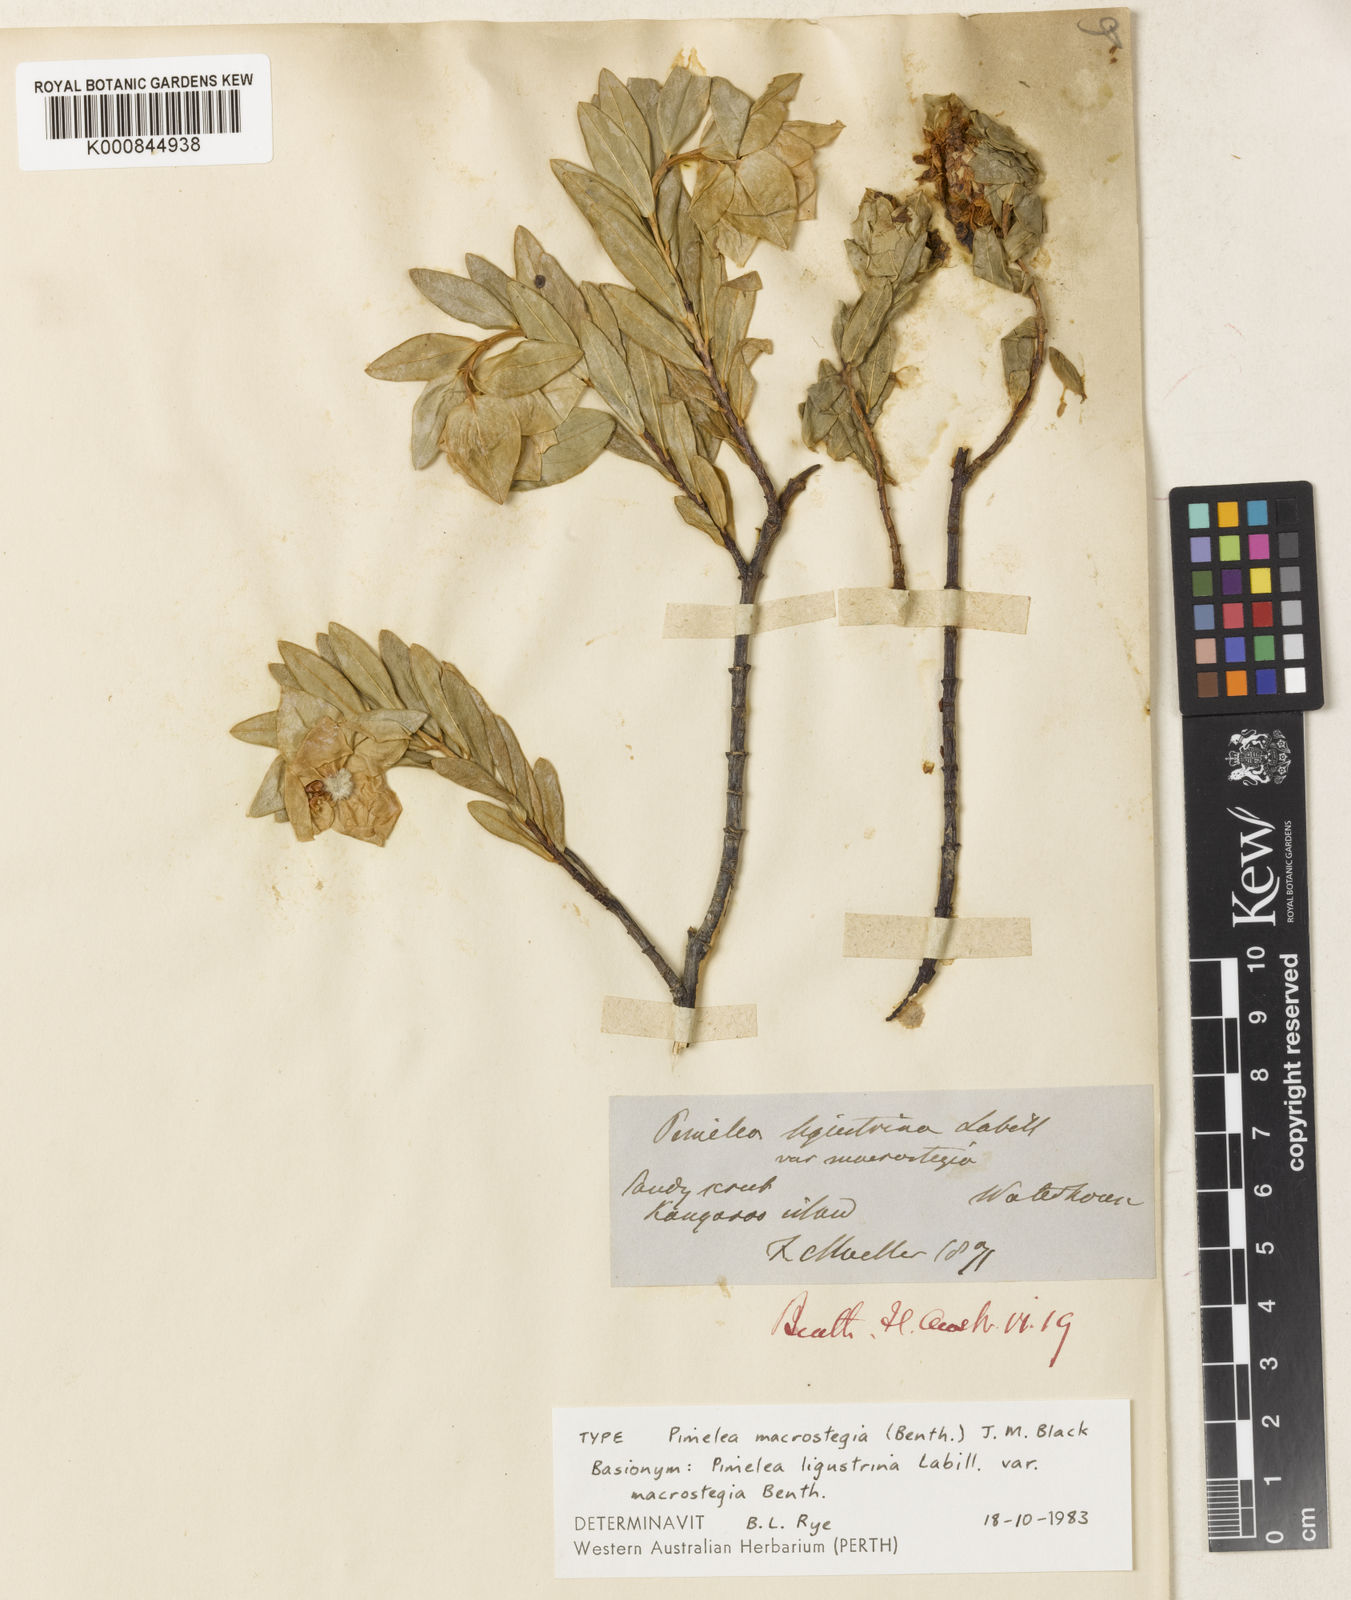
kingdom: Plantae
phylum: Tracheophyta
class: Magnoliopsida
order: Malvales
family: Thymelaeaceae
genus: Pimelea
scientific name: Pimelea macrostegia
